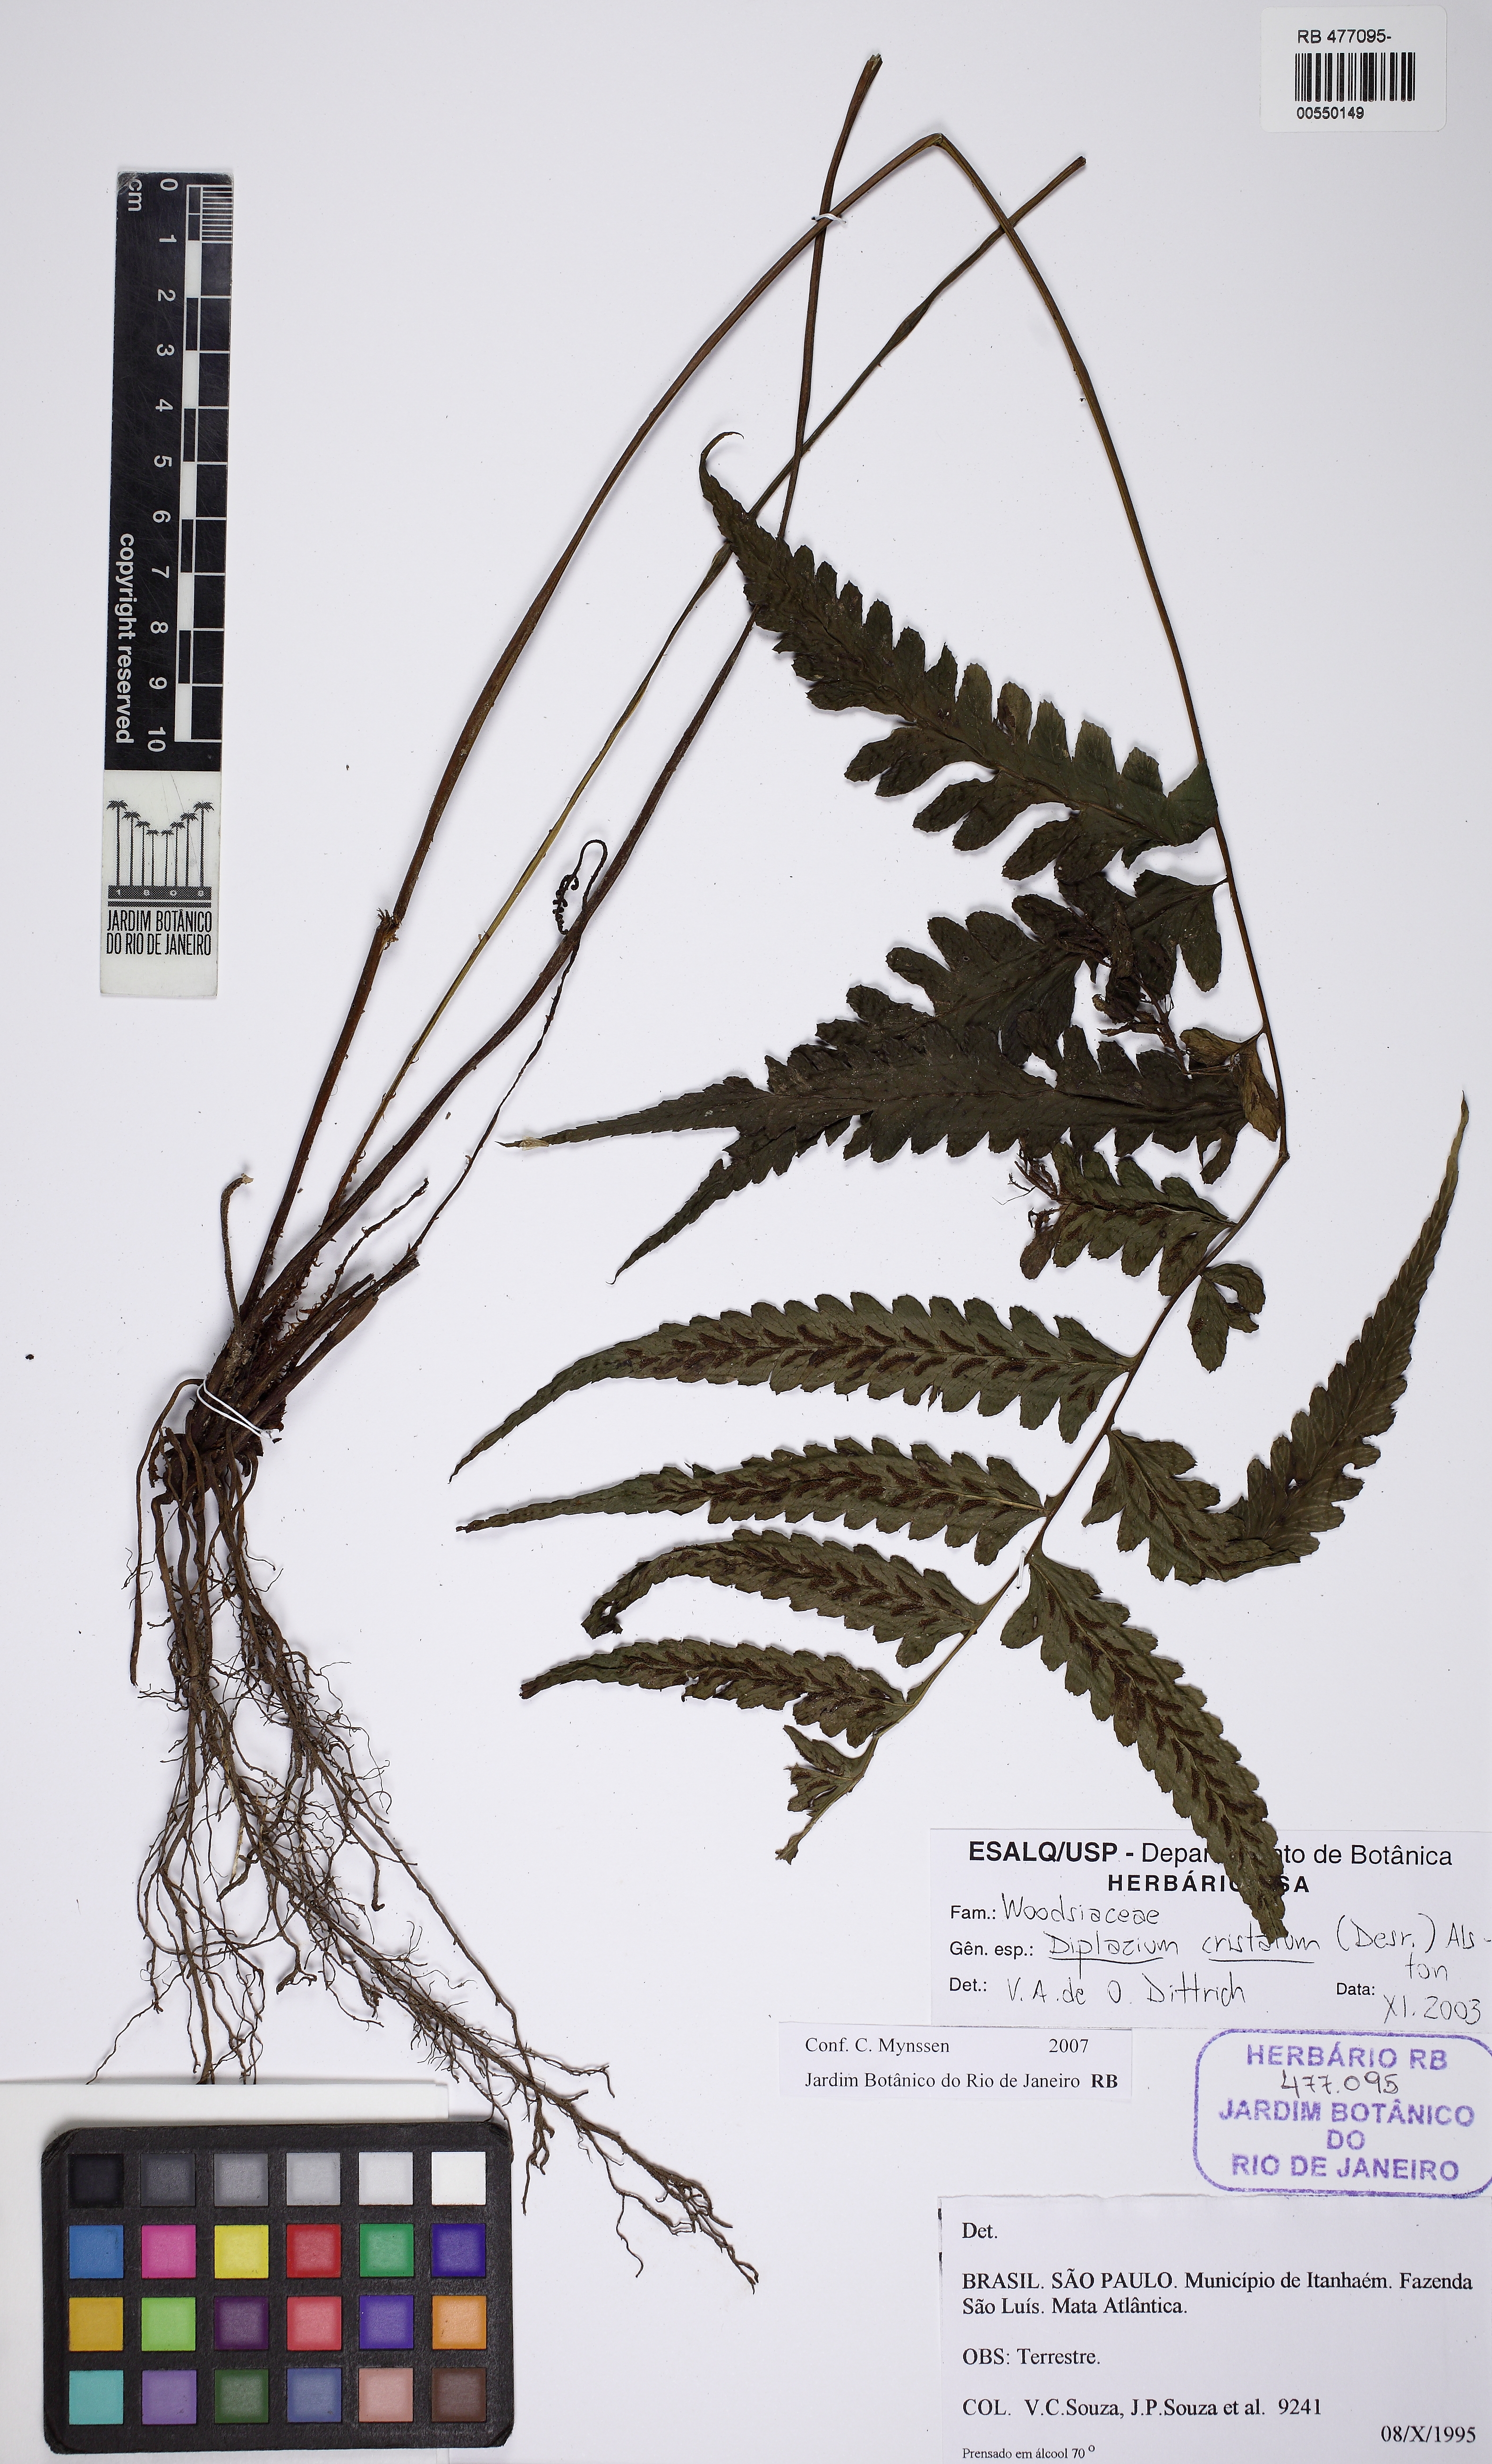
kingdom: Plantae
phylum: Tracheophyta
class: Polypodiopsida
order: Polypodiales
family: Athyriaceae
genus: Diplazium
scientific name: Diplazium cristatum
